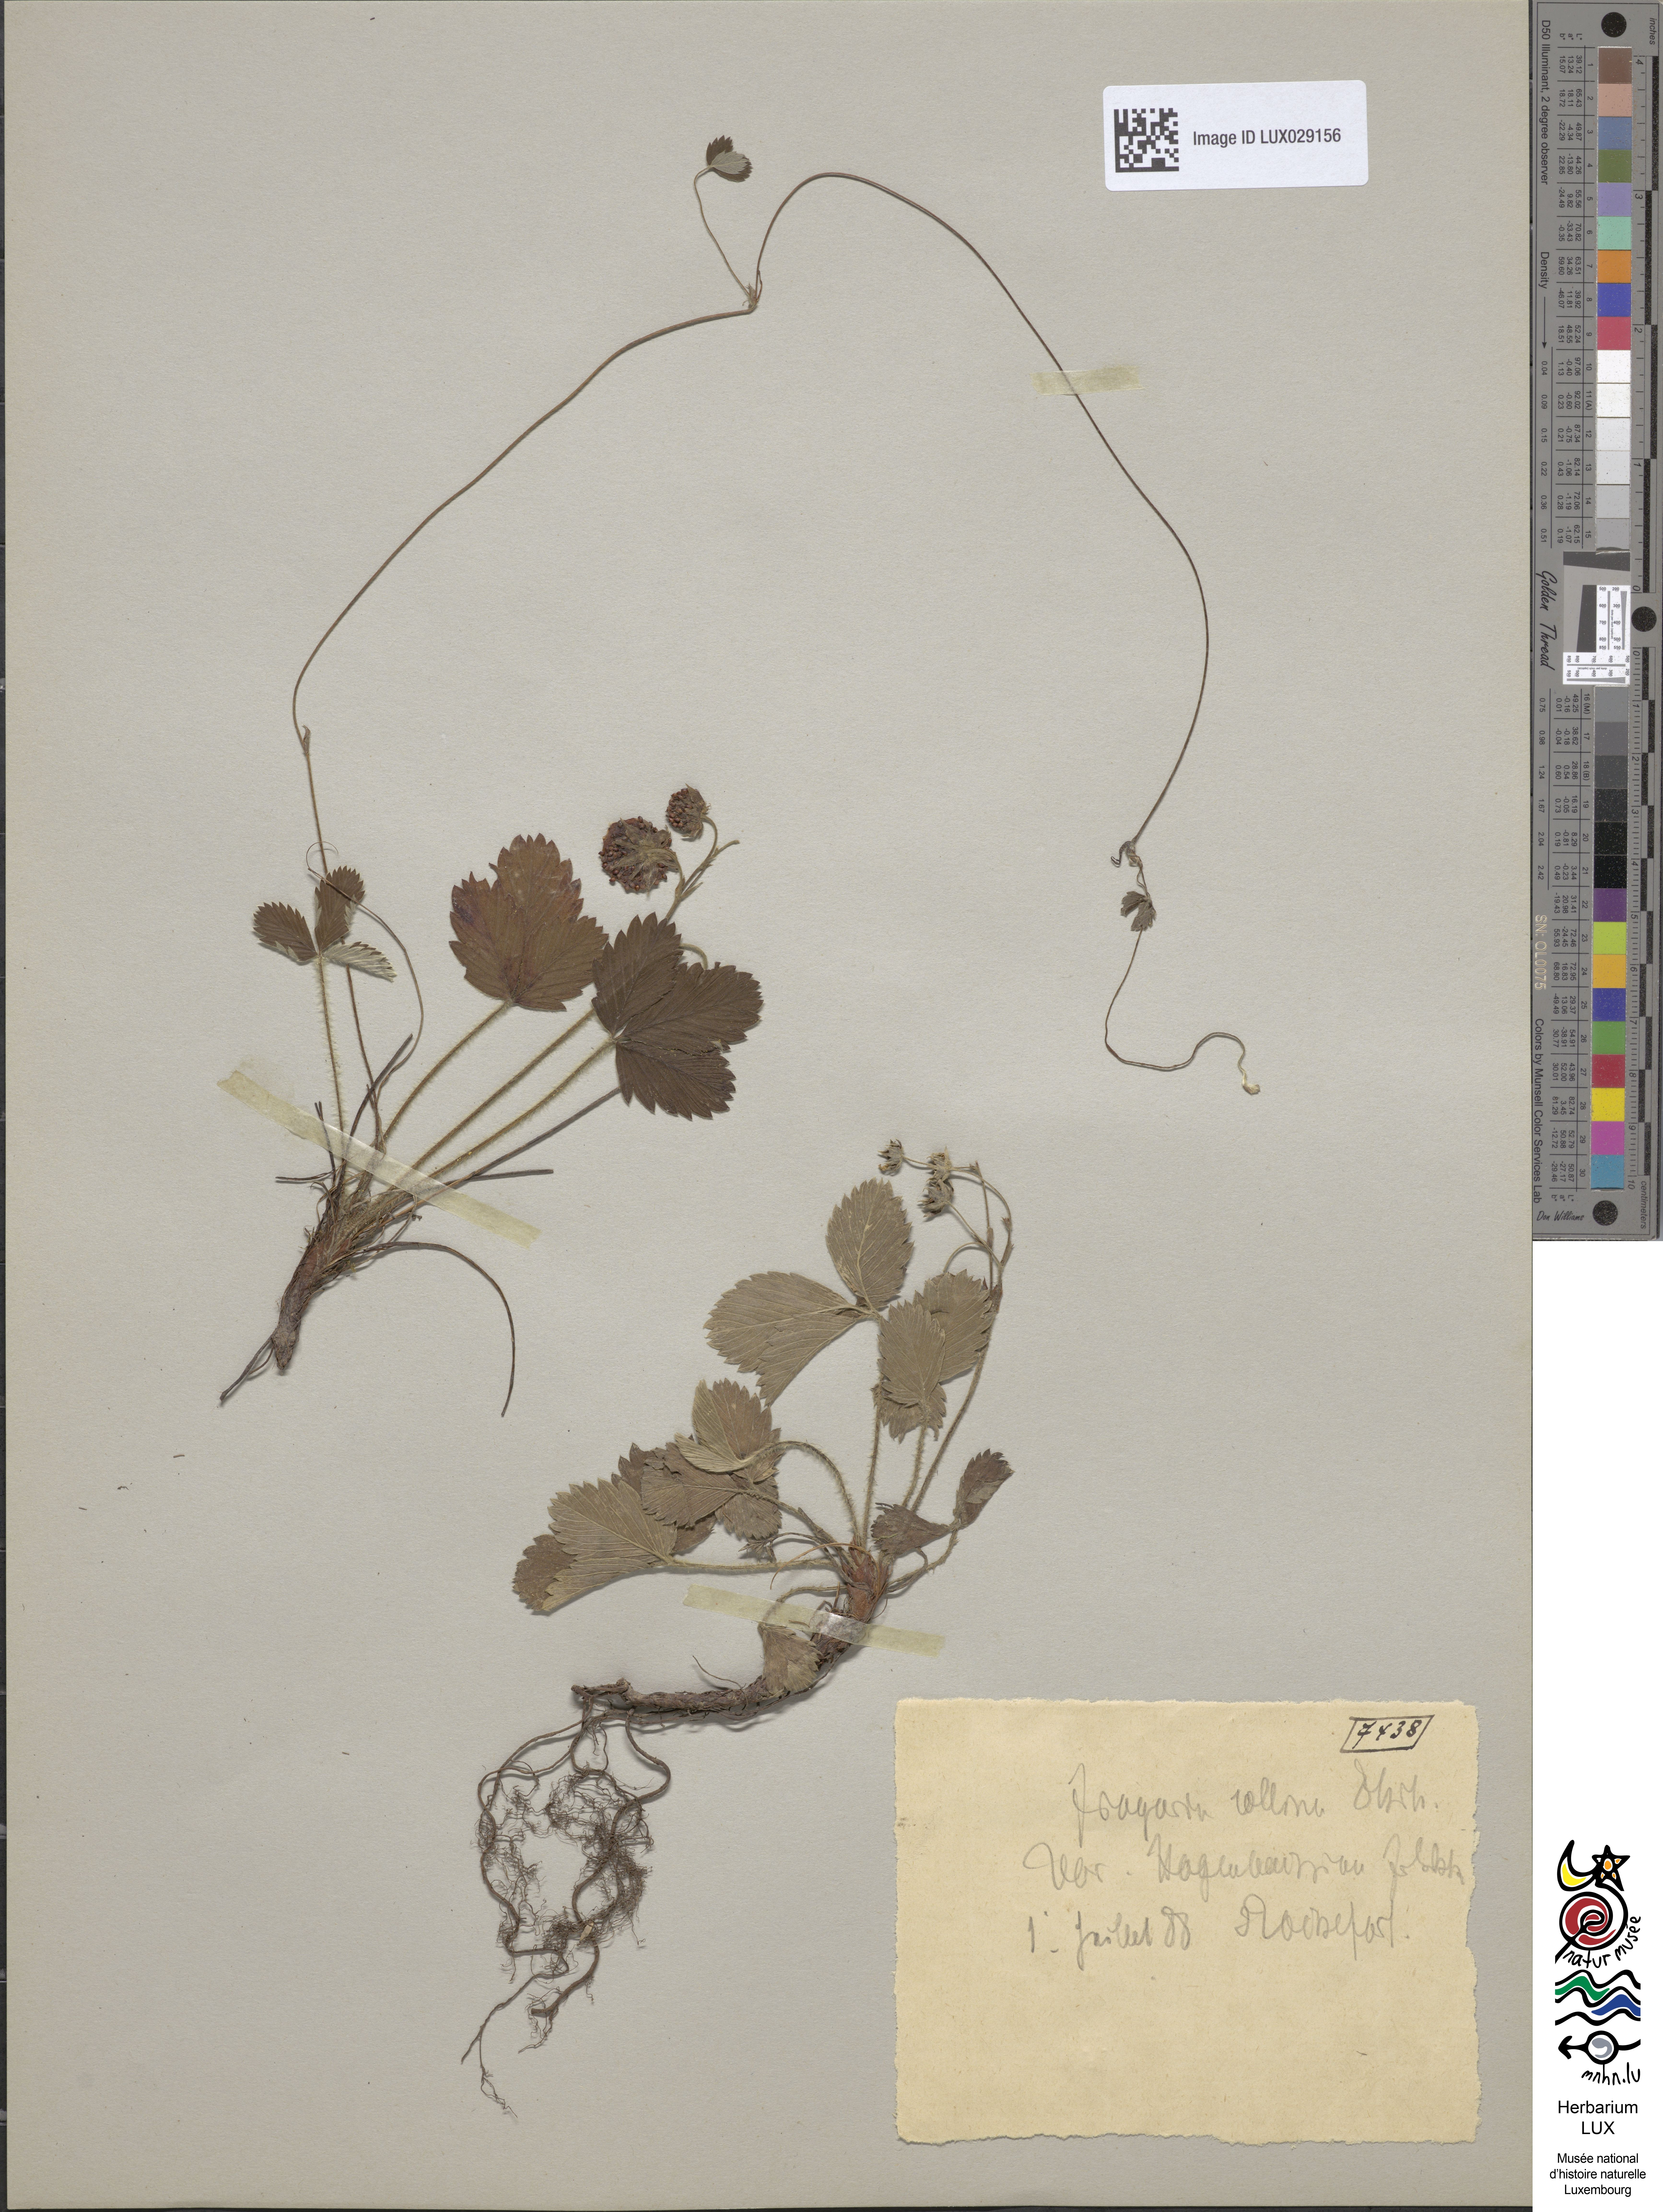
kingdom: Plantae
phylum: Tracheophyta
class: Magnoliopsida
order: Rosales
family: Rosaceae
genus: Fragaria
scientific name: Fragaria bifera
